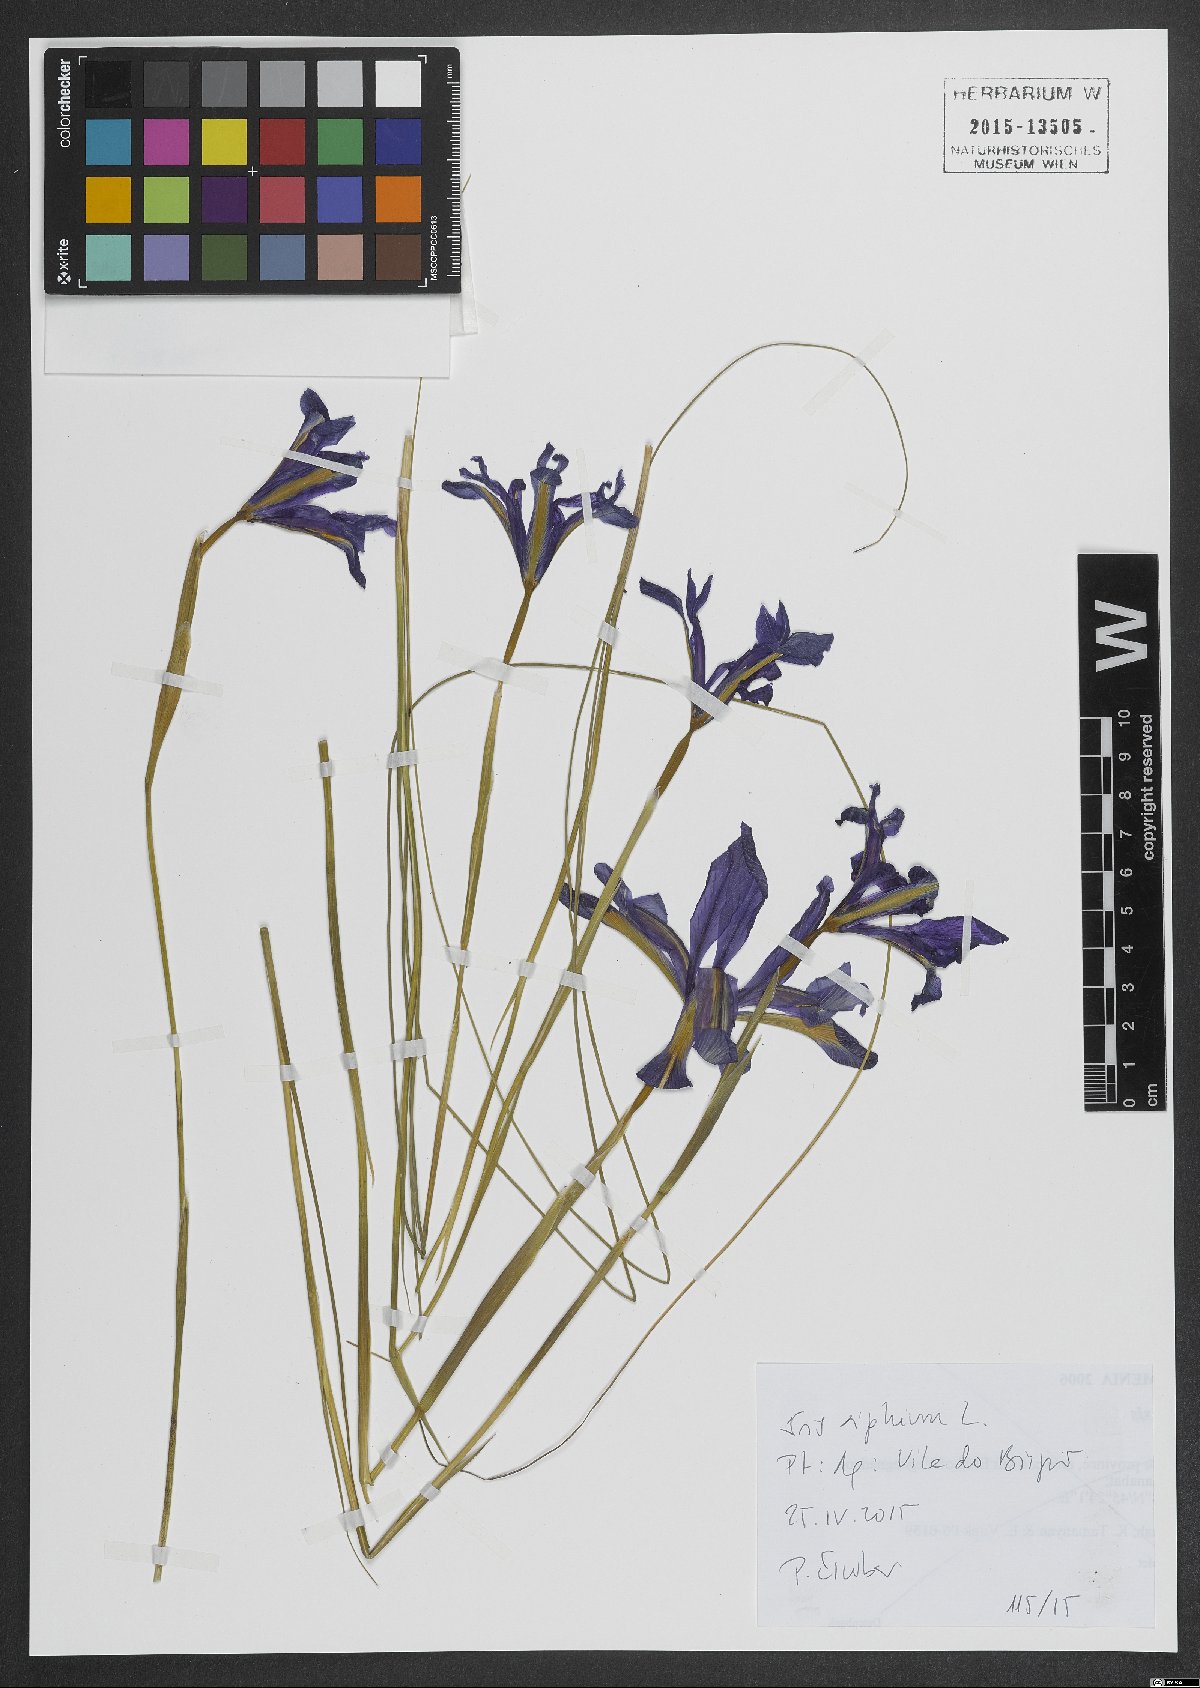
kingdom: Plantae
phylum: Tracheophyta
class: Liliopsida
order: Asparagales
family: Iridaceae
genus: Iris
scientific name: Iris xiphium
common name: Spanish iris
